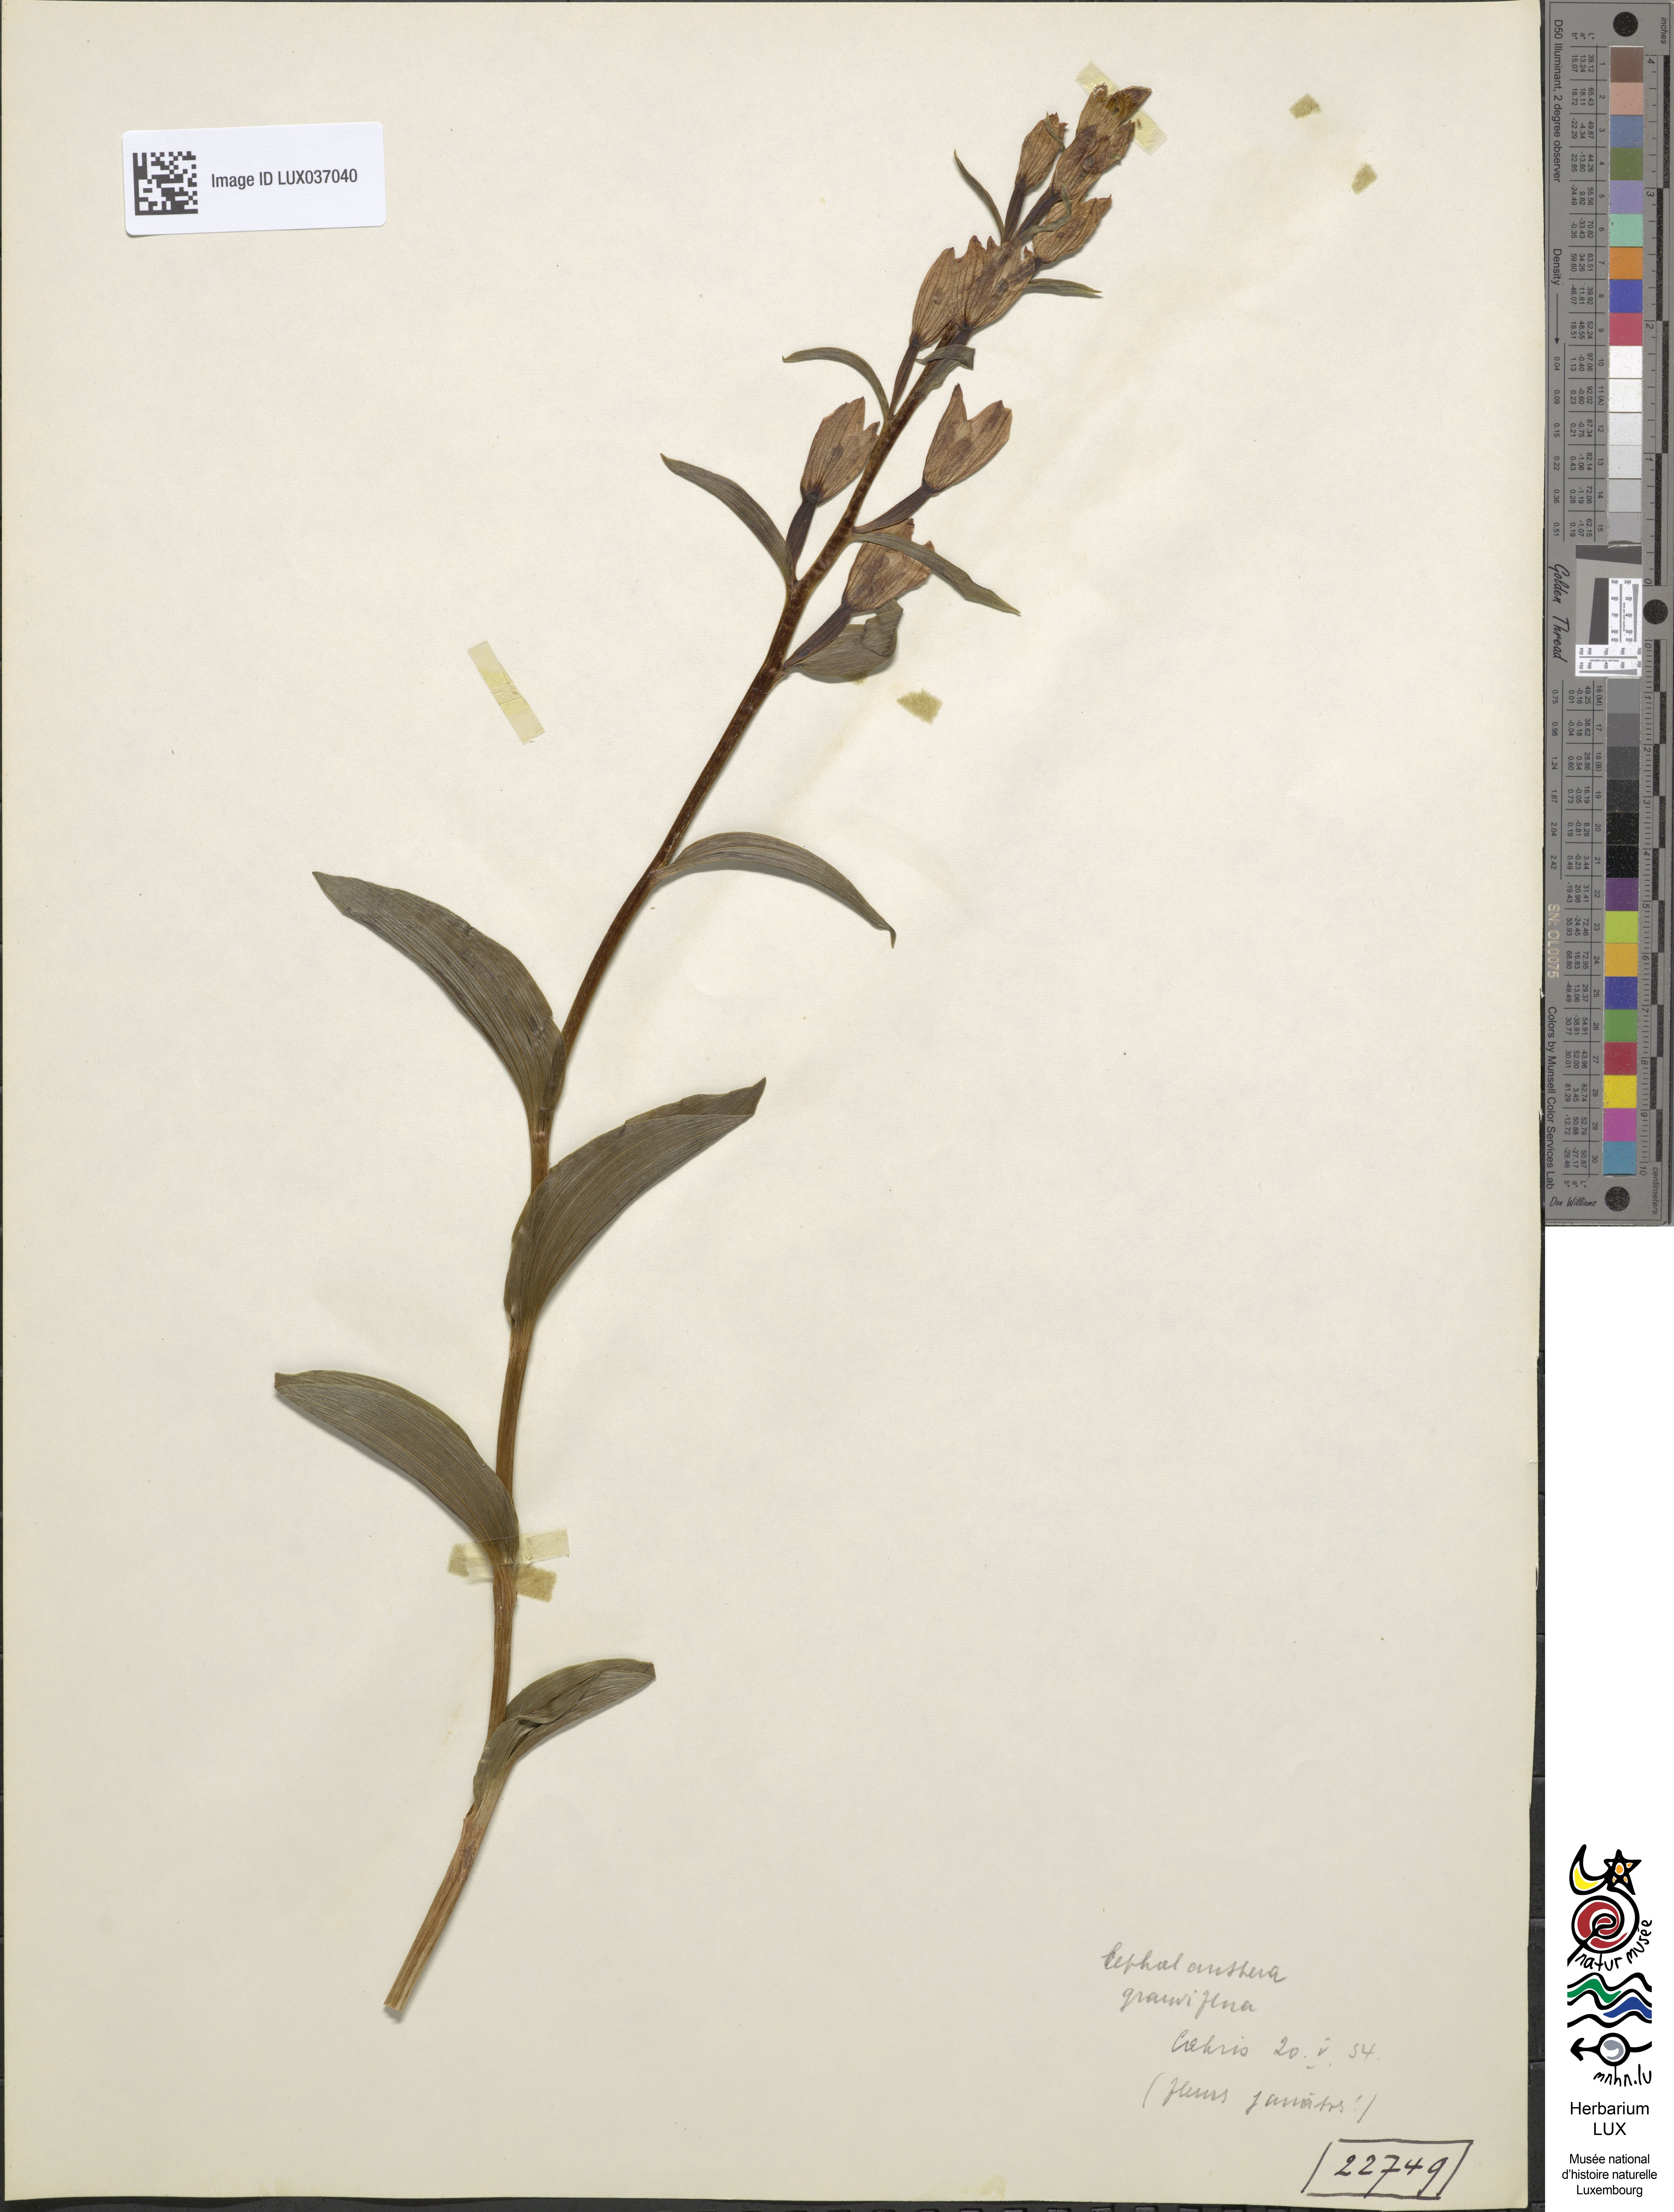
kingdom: Plantae
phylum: Tracheophyta
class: Liliopsida
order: Asparagales
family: Orchidaceae
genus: Cephalanthera
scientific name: Cephalanthera damasonium
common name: White helleborine
